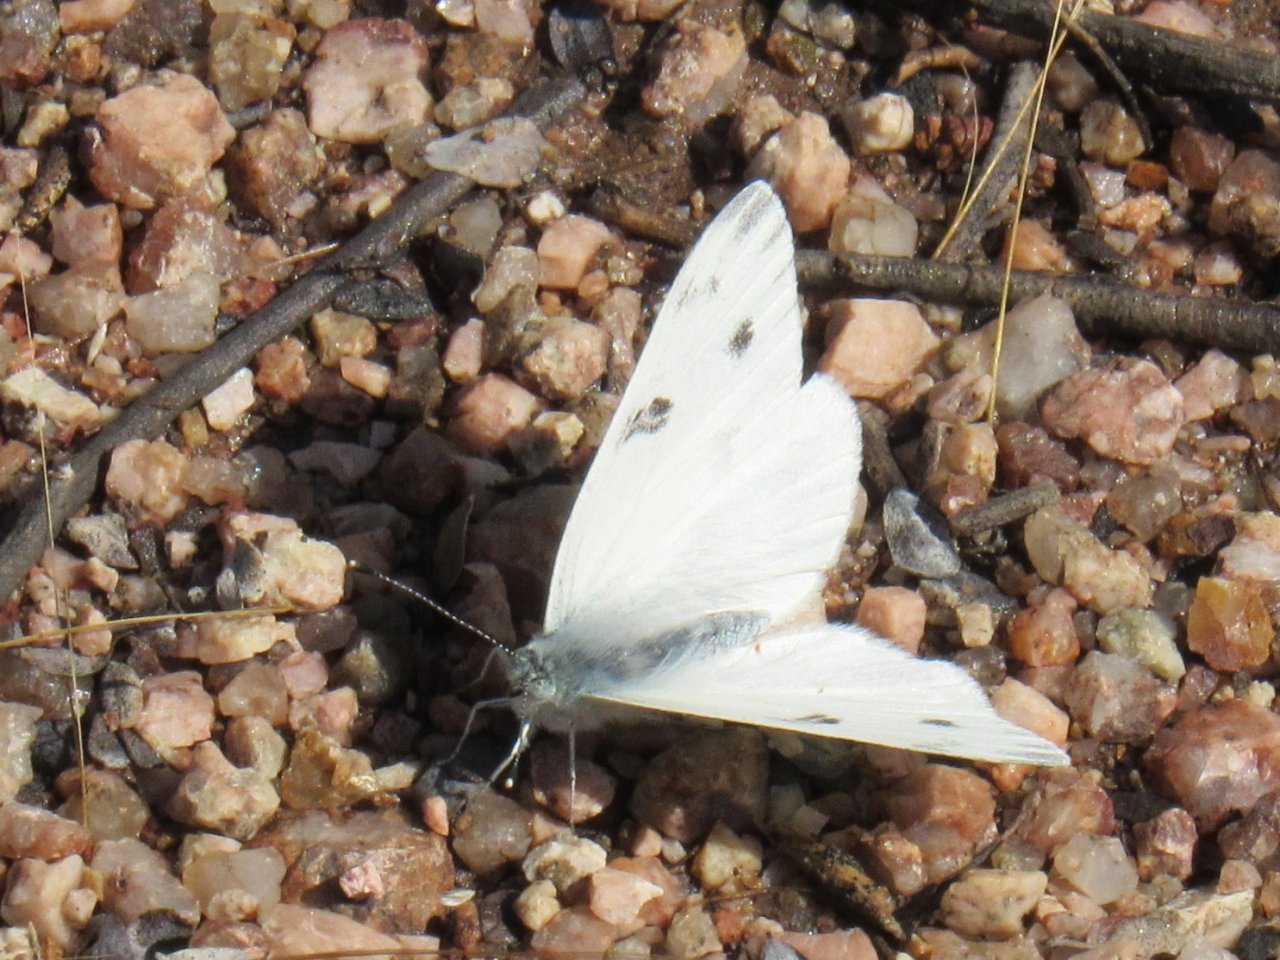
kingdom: Animalia
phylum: Arthropoda
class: Insecta
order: Lepidoptera
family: Pieridae
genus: Pontia
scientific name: Pontia protodice
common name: Checkered White
